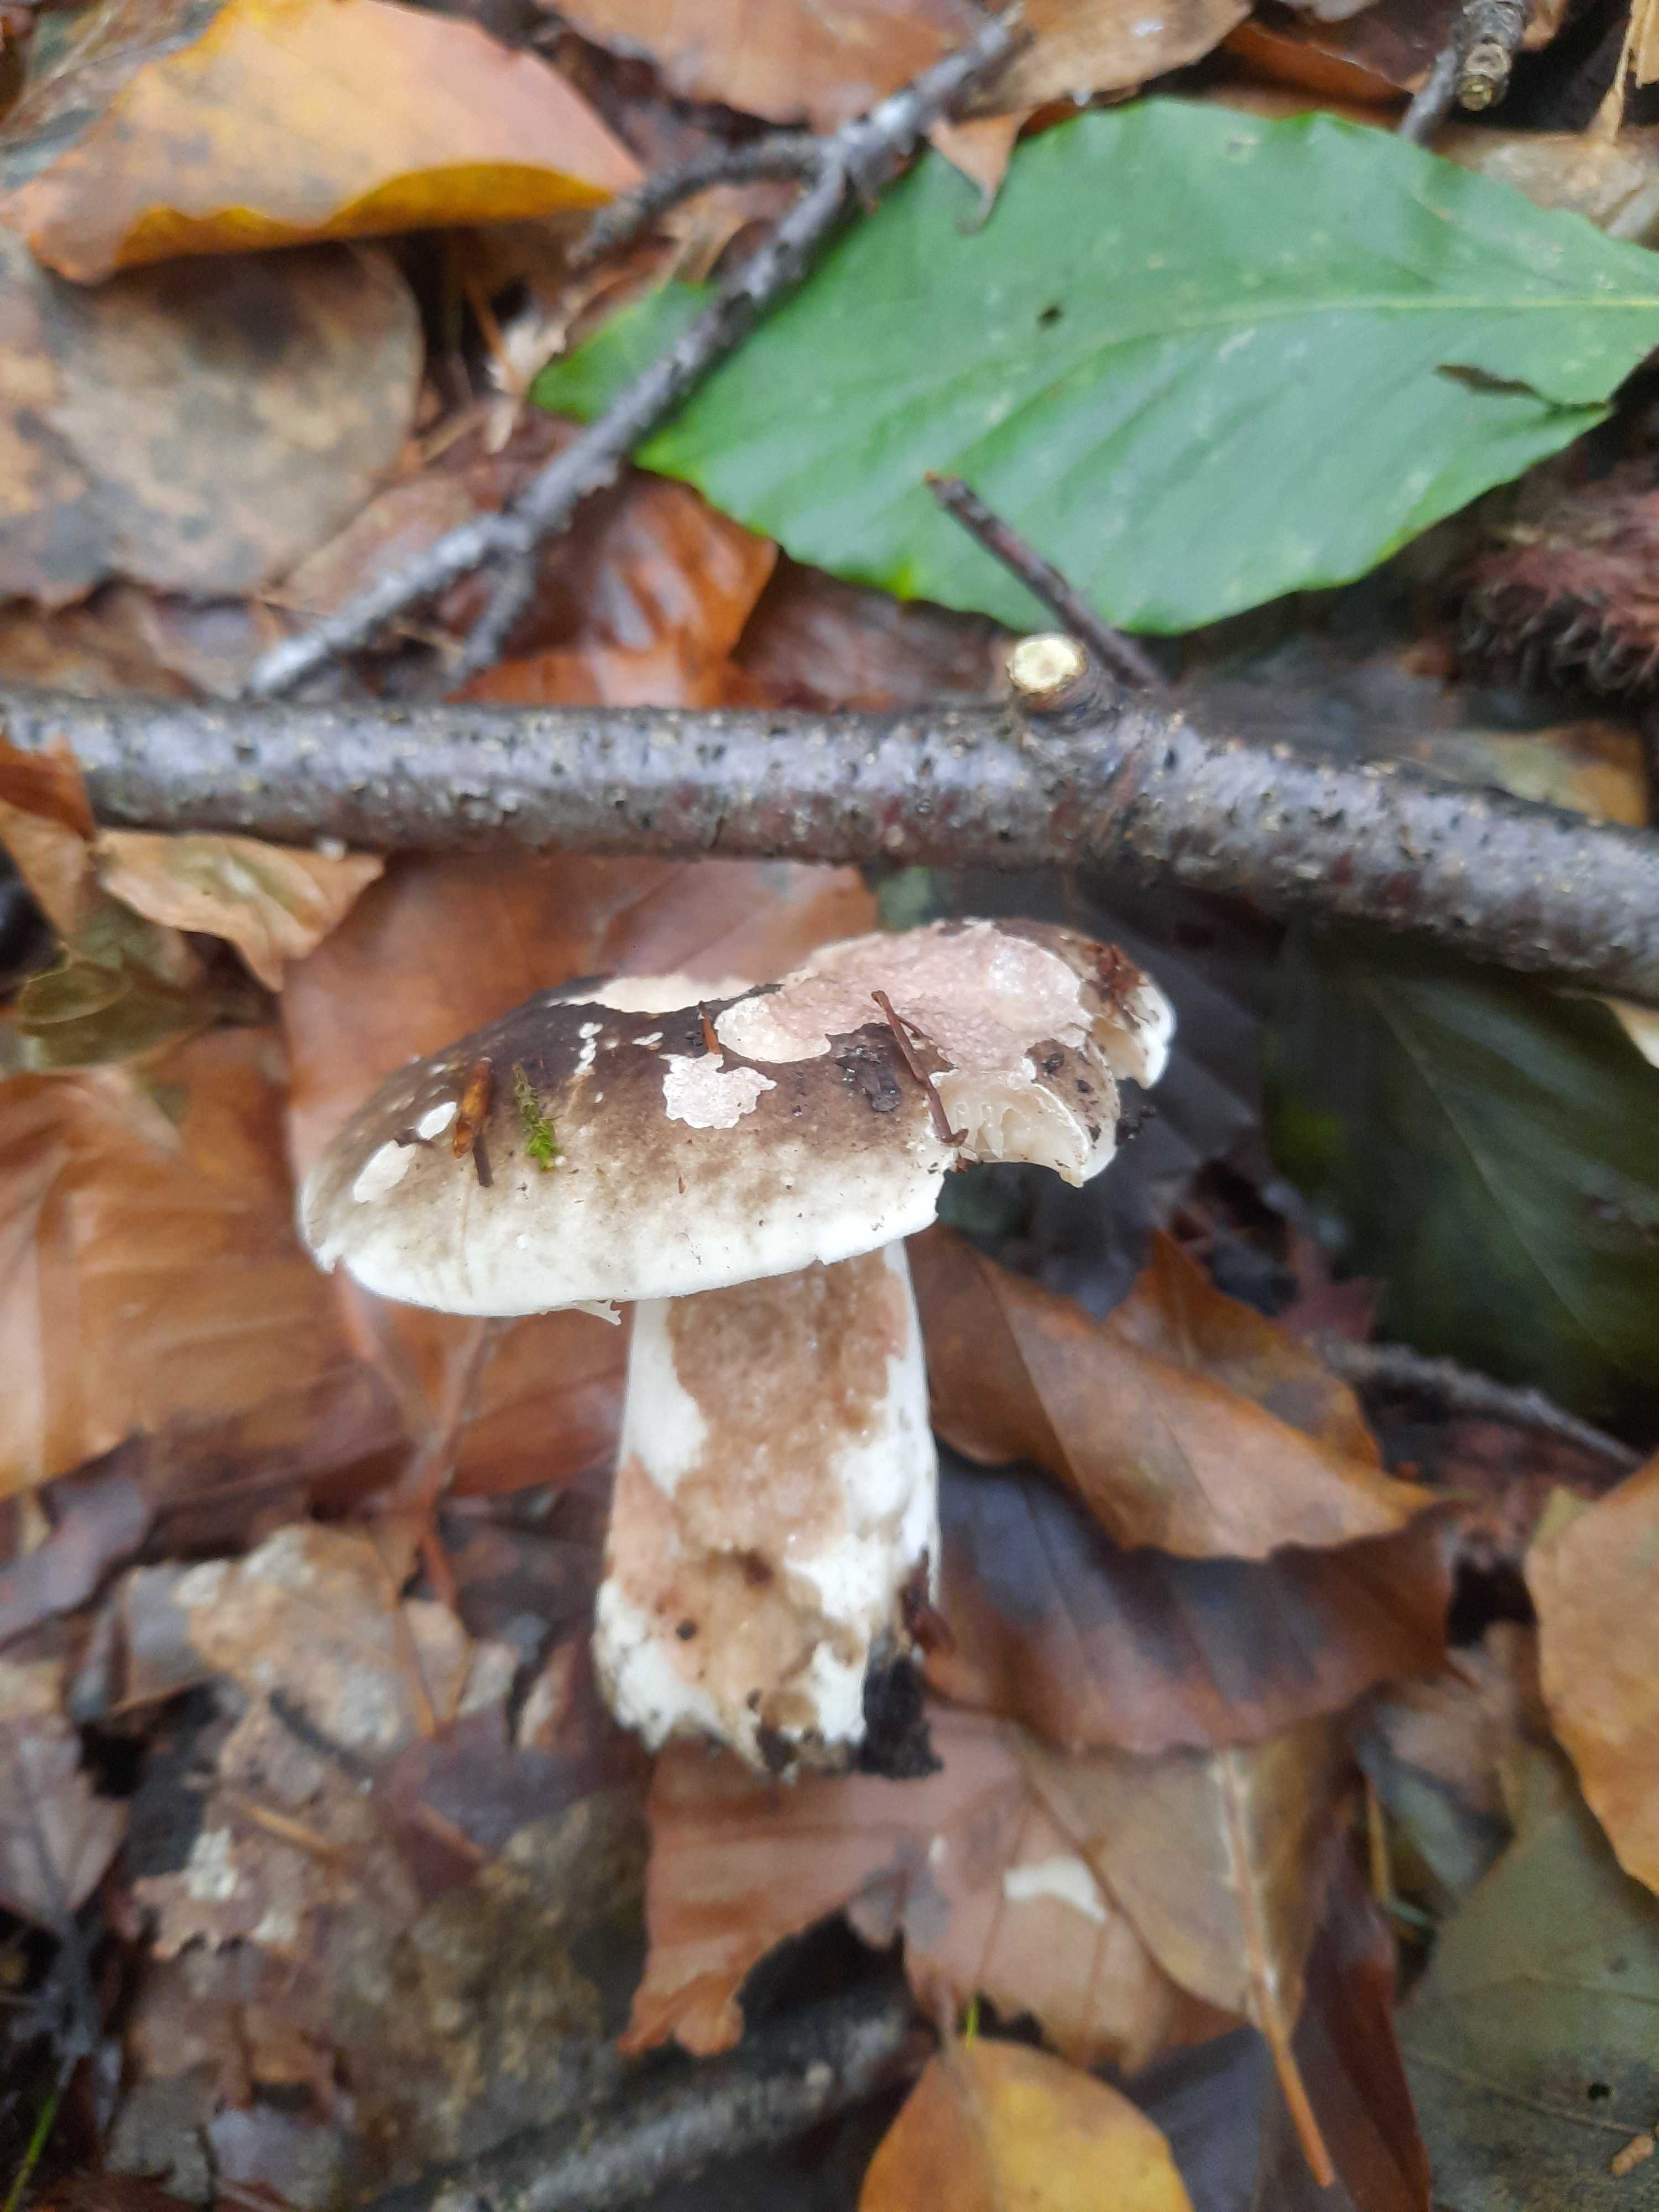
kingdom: Fungi
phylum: Basidiomycota
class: Agaricomycetes
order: Russulales
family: Russulaceae
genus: Russula
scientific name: Russula adusta
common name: sværtende skørhat
